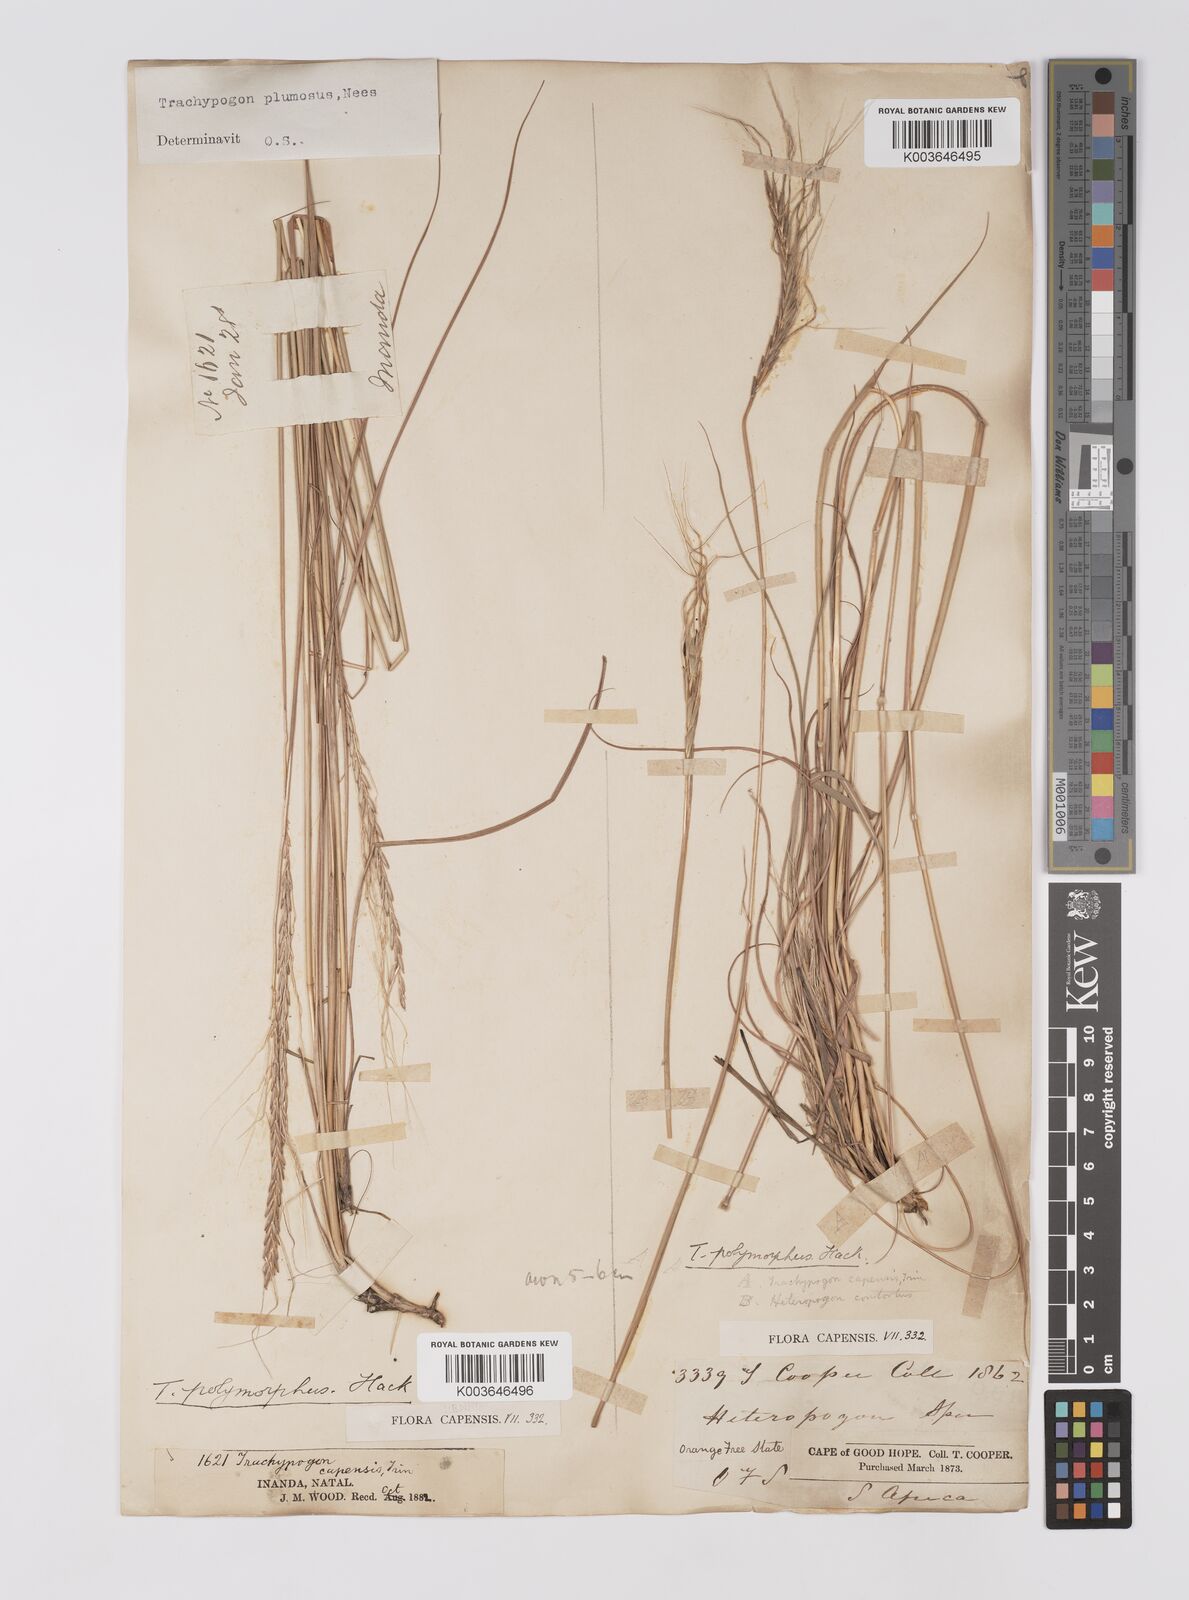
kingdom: Plantae
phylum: Tracheophyta
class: Liliopsida
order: Poales
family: Poaceae
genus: Trachypogon
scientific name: Trachypogon spicatus
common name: Crinkle-awn
